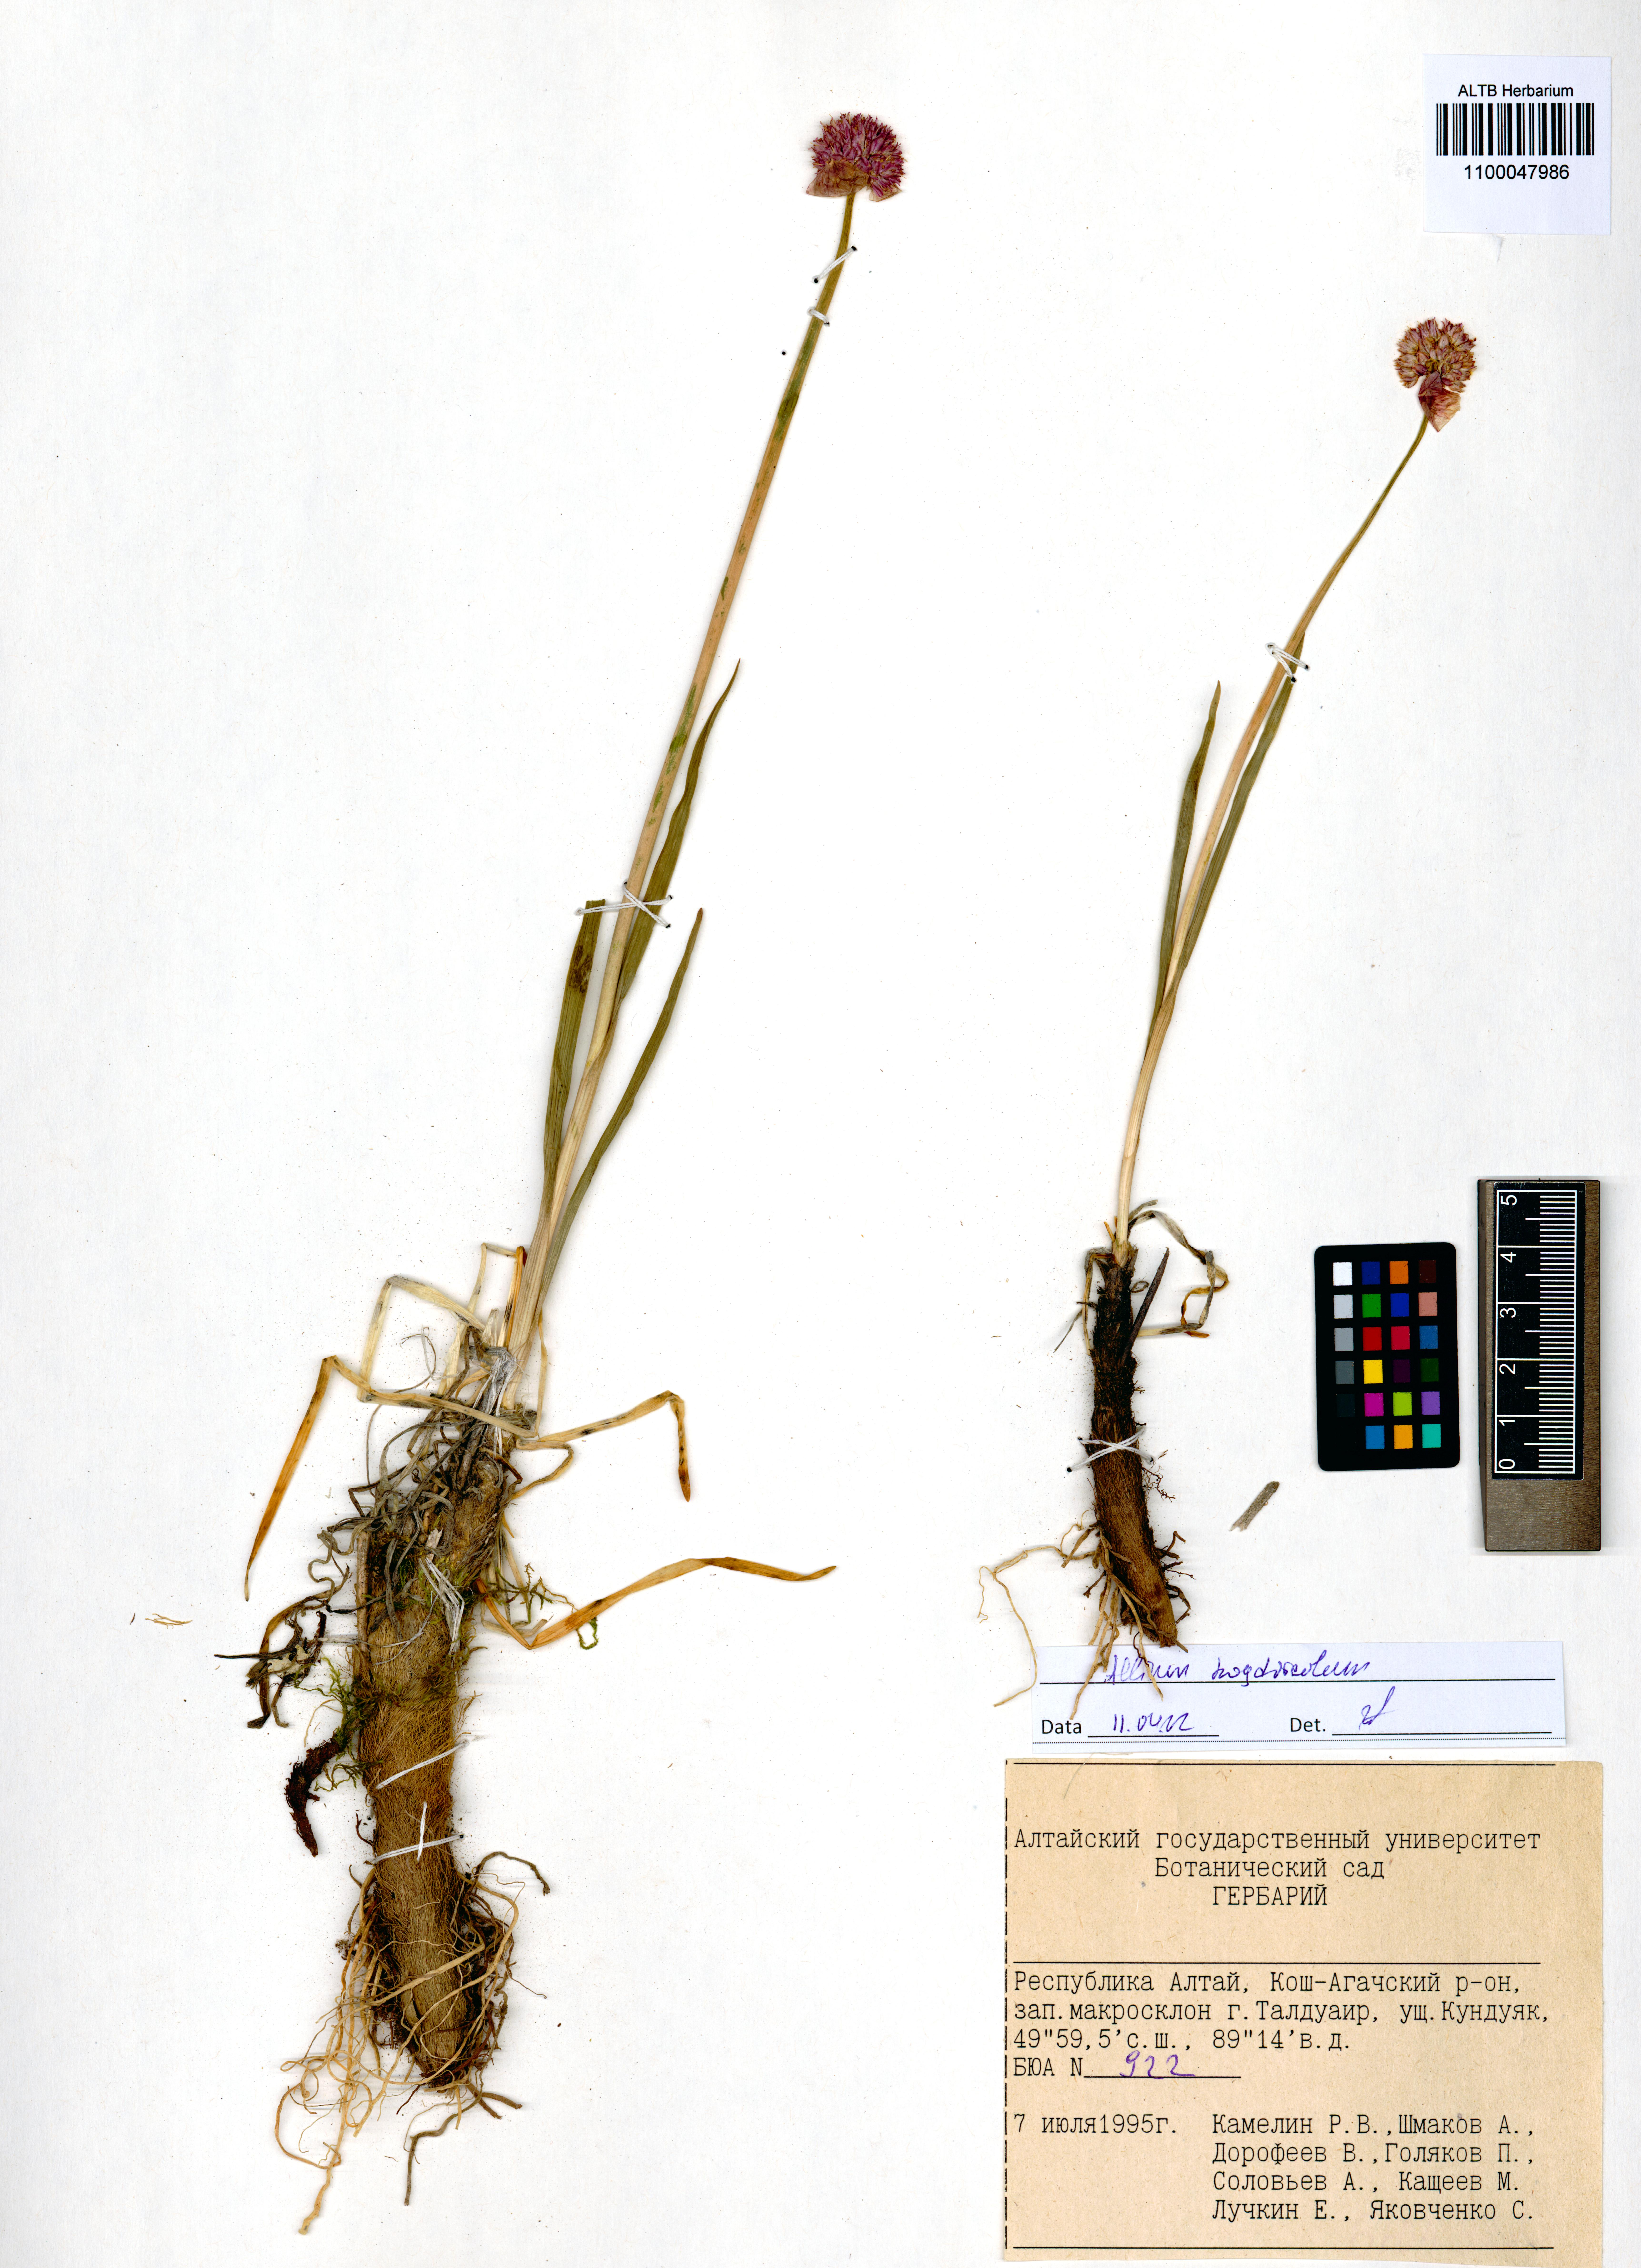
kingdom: Plantae
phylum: Tracheophyta
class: Liliopsida
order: Asparagales
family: Amaryllidaceae
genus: Allium
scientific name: Allium schrenkii
